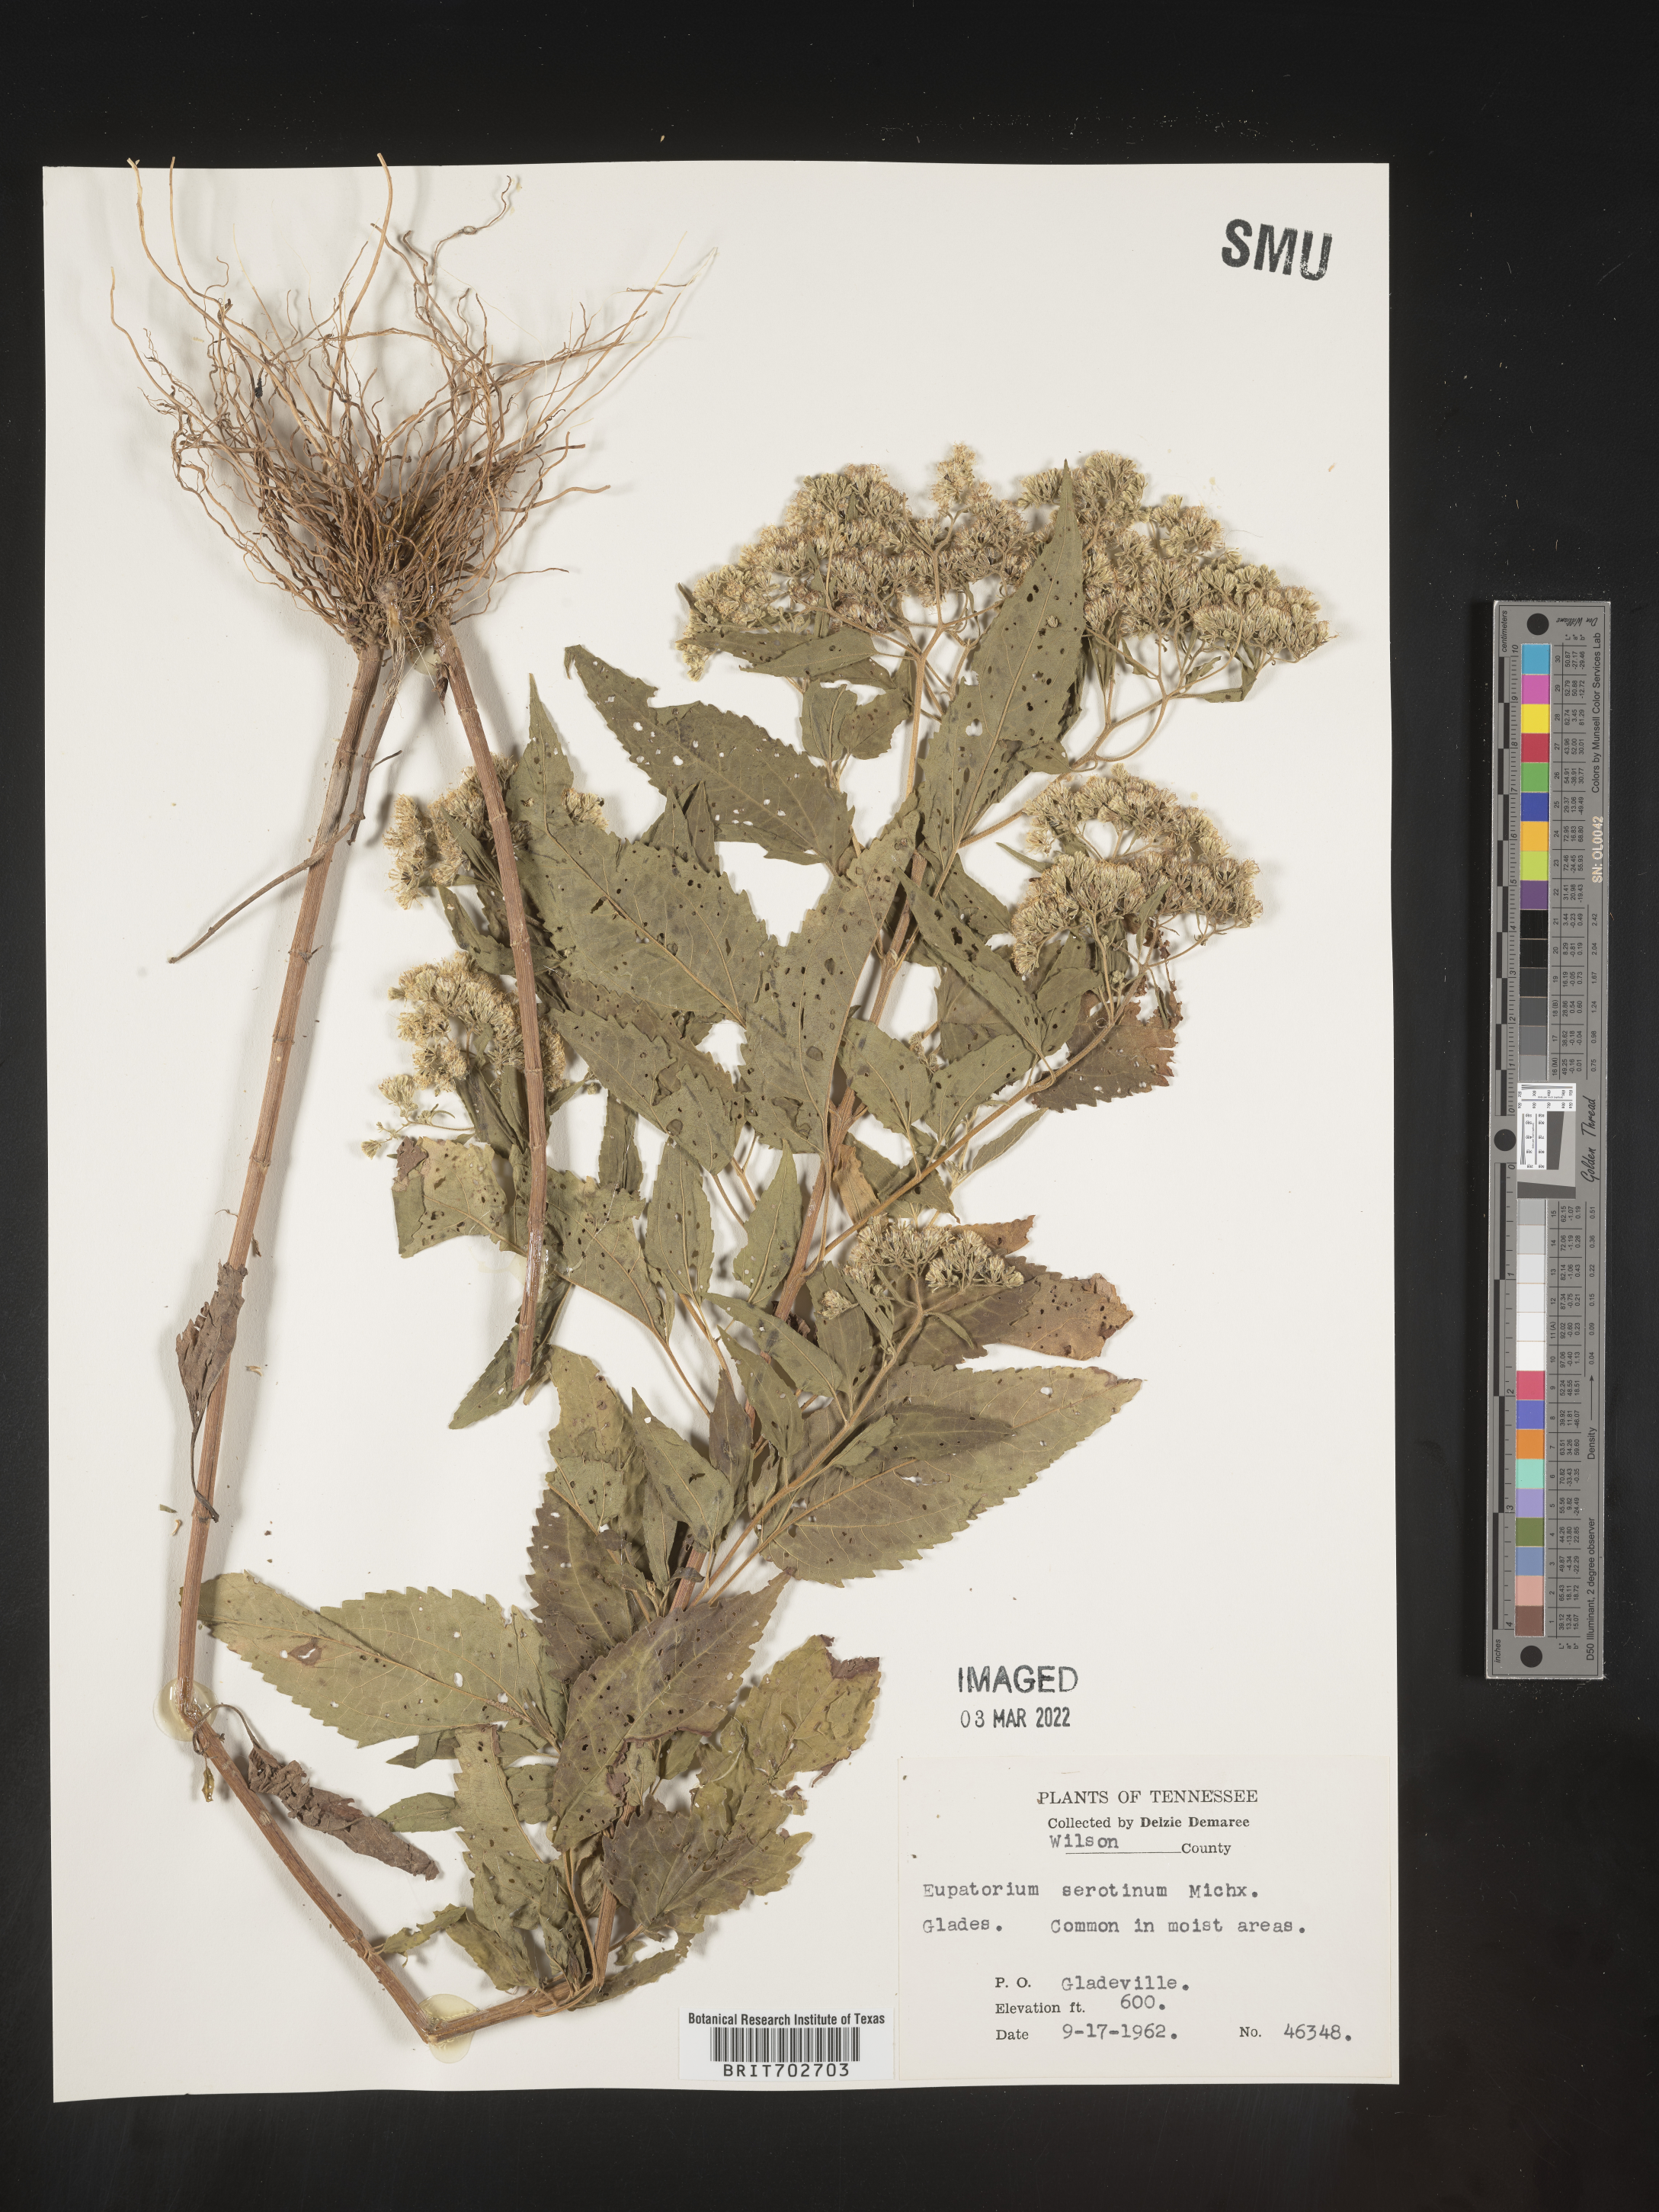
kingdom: Plantae
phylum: Tracheophyta
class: Magnoliopsida
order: Asterales
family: Asteraceae
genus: Eupatorium
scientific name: Eupatorium serotinum
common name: Late boneset
